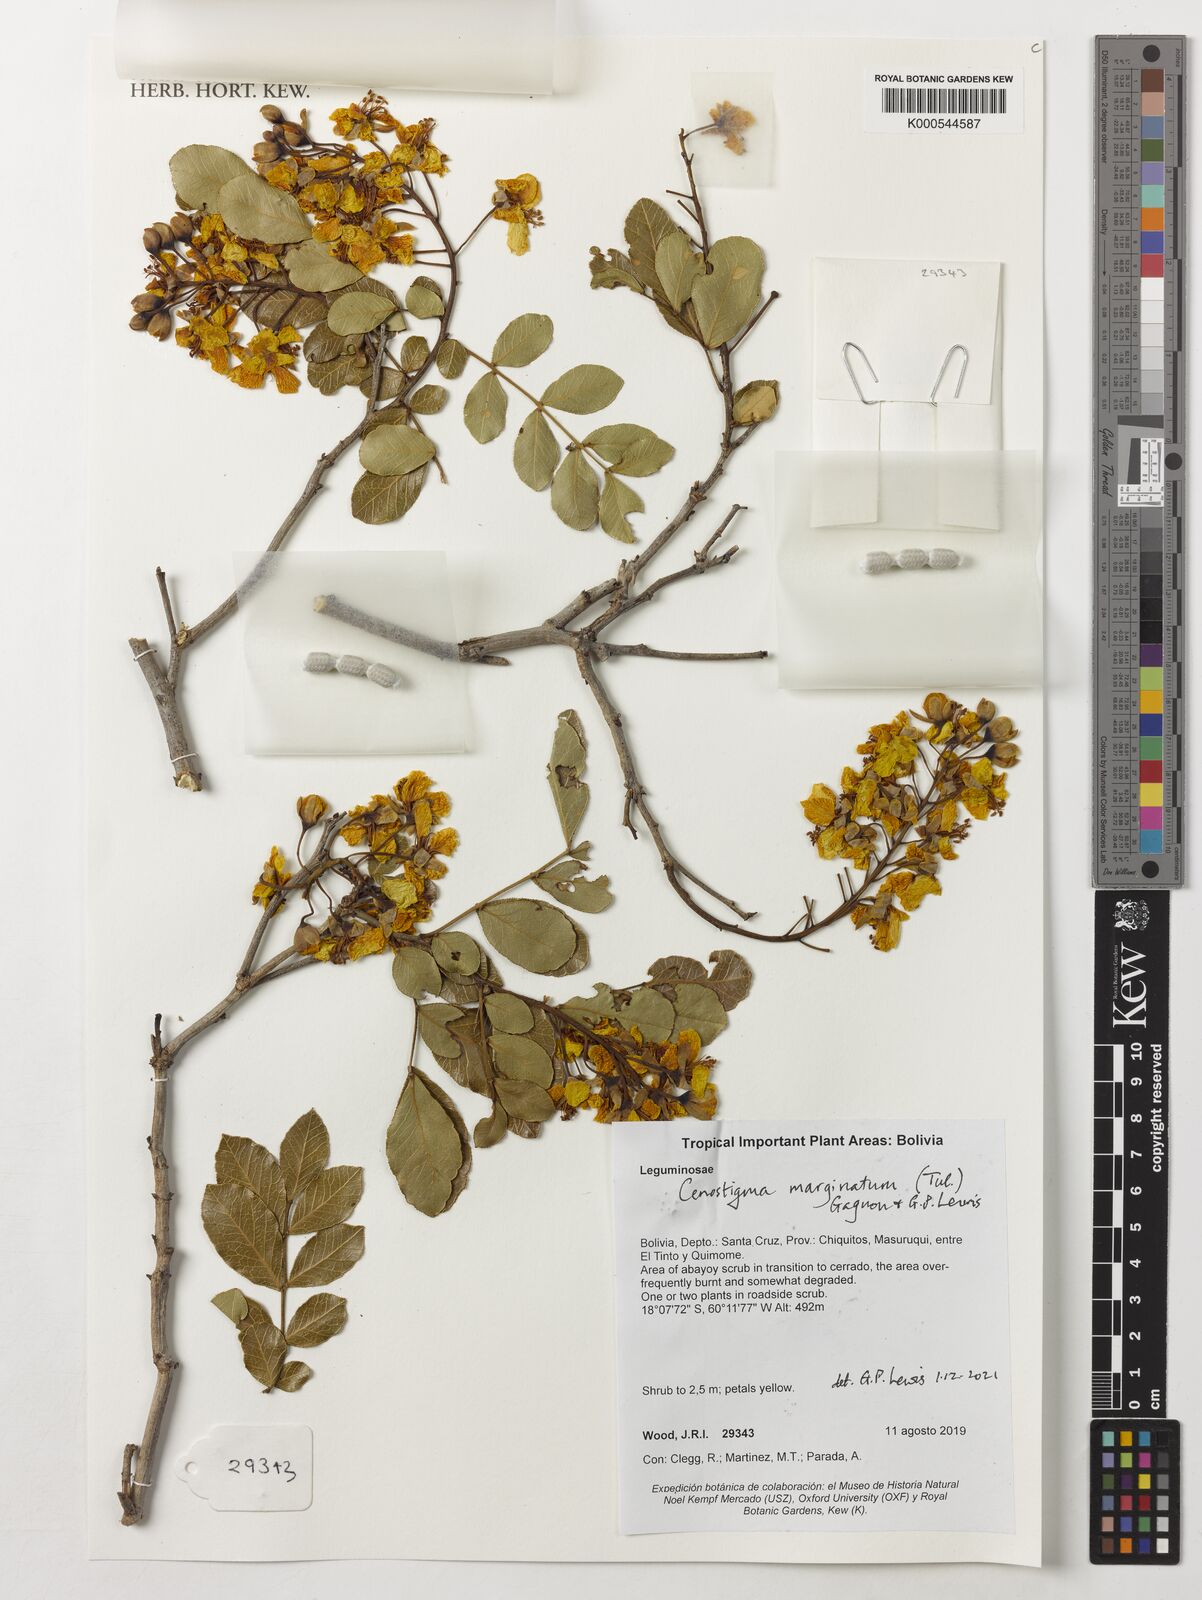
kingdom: Plantae
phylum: Tracheophyta
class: Magnoliopsida
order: Fabales
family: Fabaceae
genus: Cenostigma
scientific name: Cenostigma marginatum
